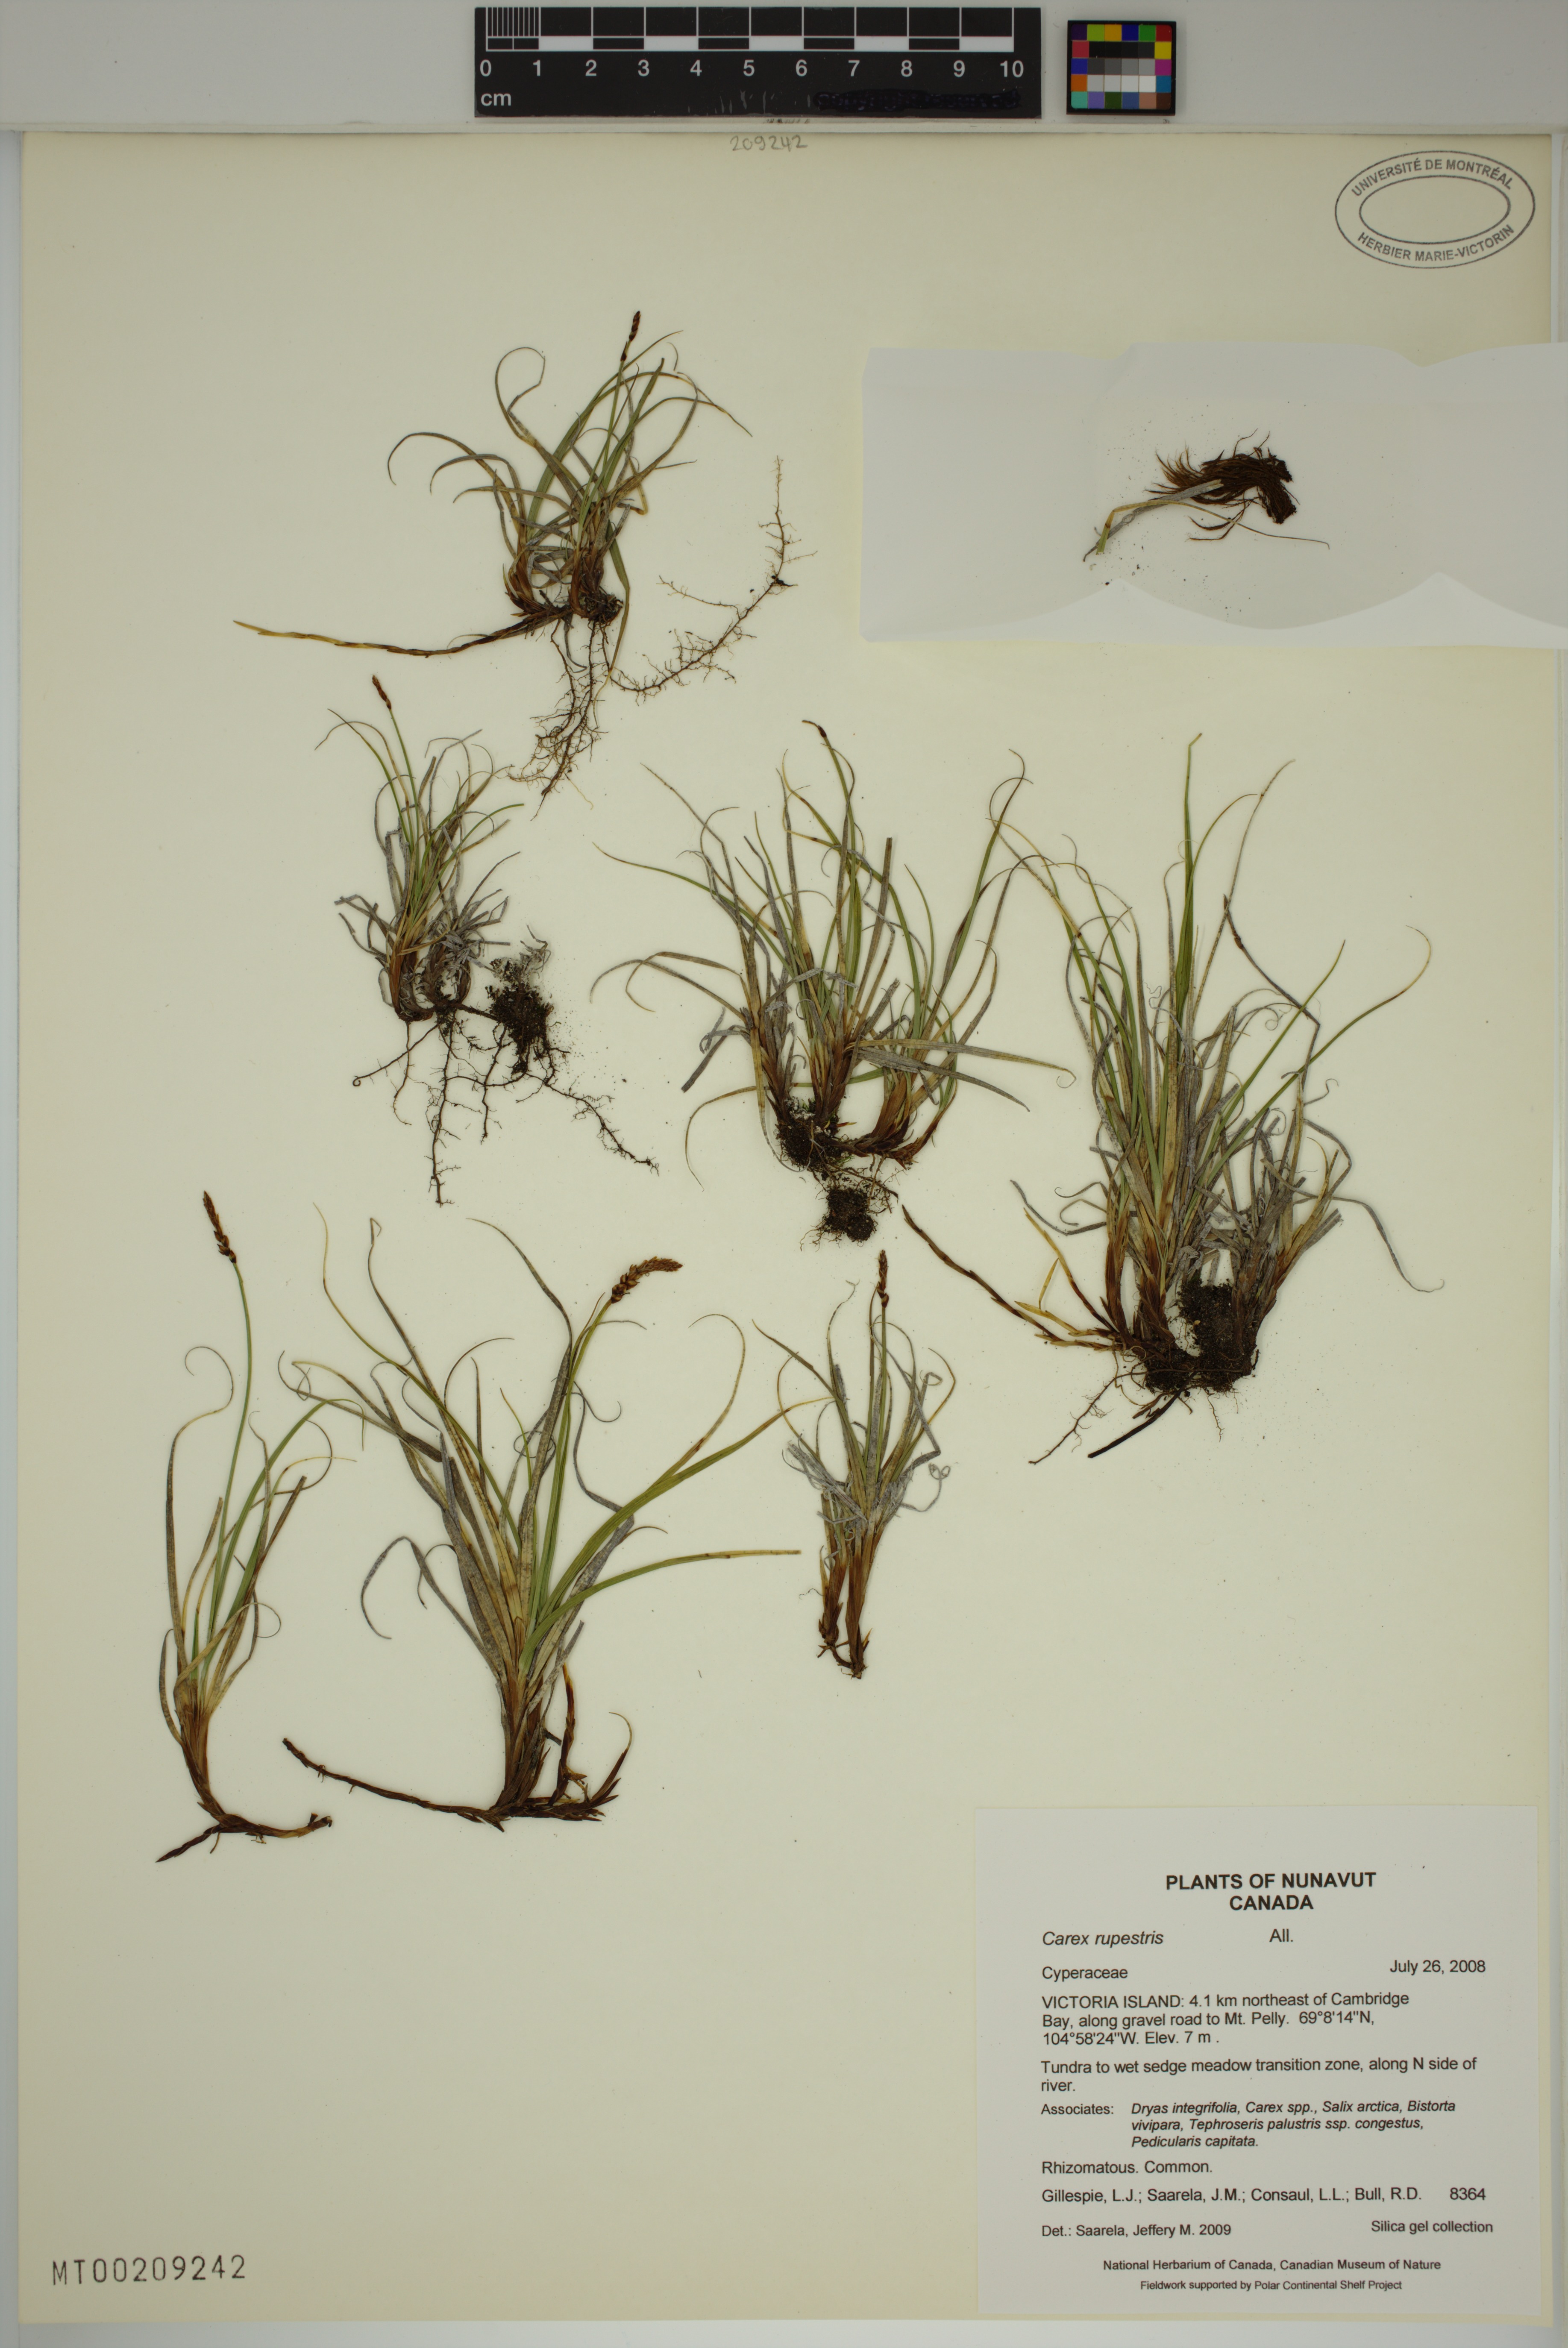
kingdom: Plantae
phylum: Tracheophyta
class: Liliopsida
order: Poales
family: Cyperaceae
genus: Carex
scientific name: Carex rupestris
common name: Rock sedge
